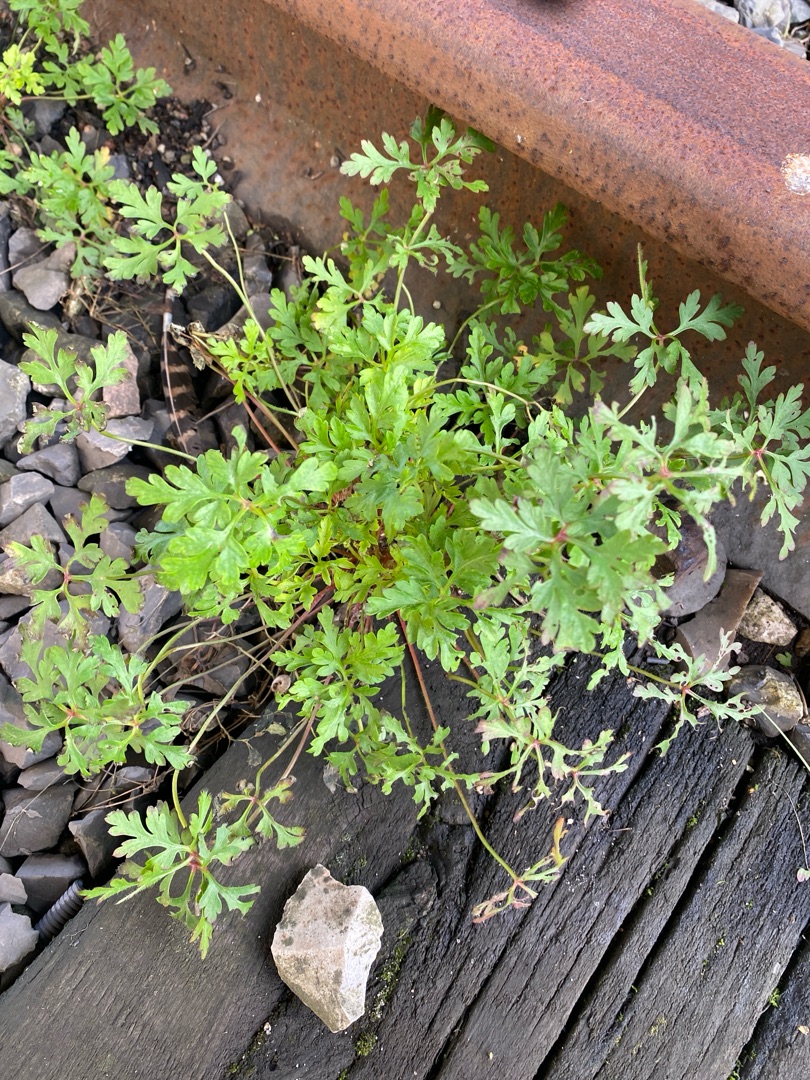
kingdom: Plantae
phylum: Tracheophyta
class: Magnoliopsida
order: Geraniales
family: Geraniaceae
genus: Geranium
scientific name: Geranium robertianum
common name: Stinkende storkenæb
